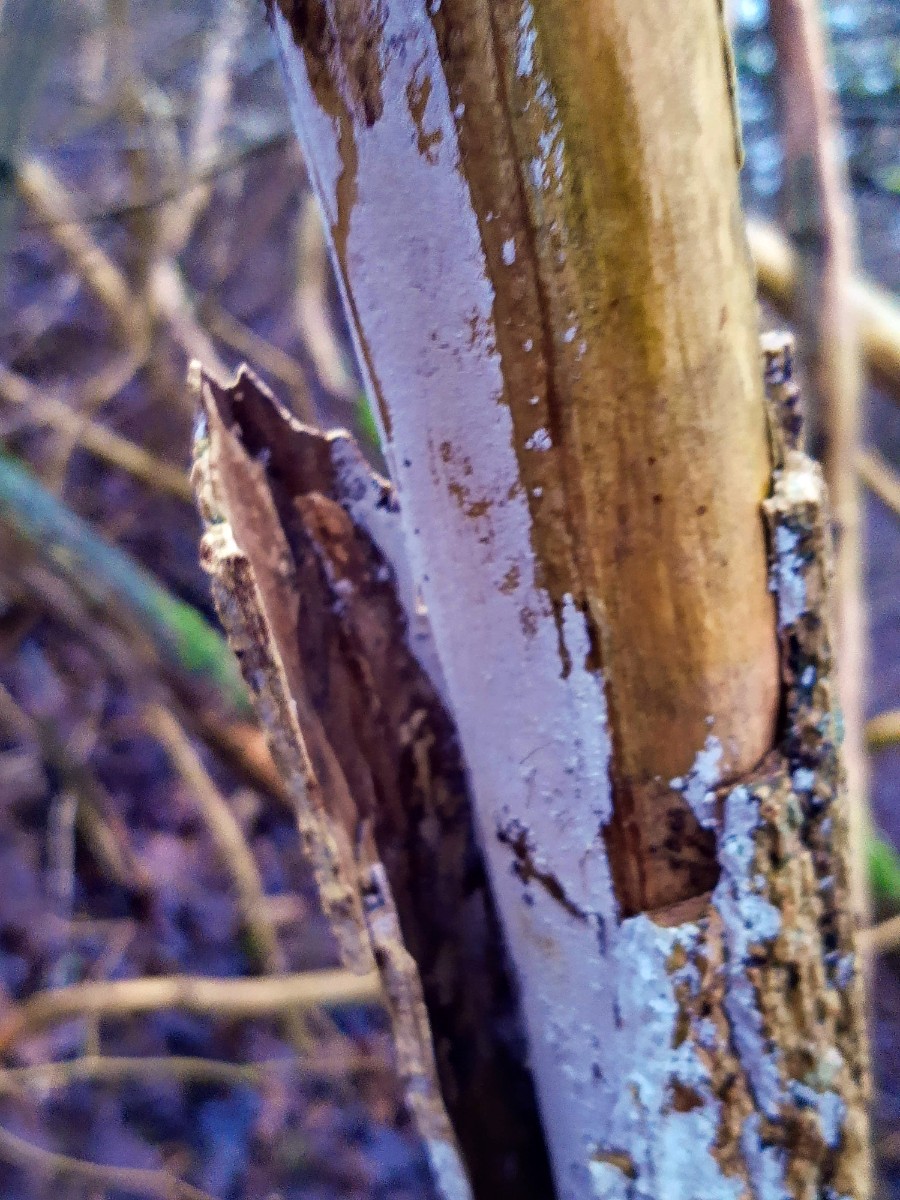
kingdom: Fungi
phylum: Basidiomycota
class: Agaricomycetes
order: Corticiales
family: Corticiaceae
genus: Lyomyces
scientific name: Lyomyces sambuci
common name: almindelig hyldehinde
